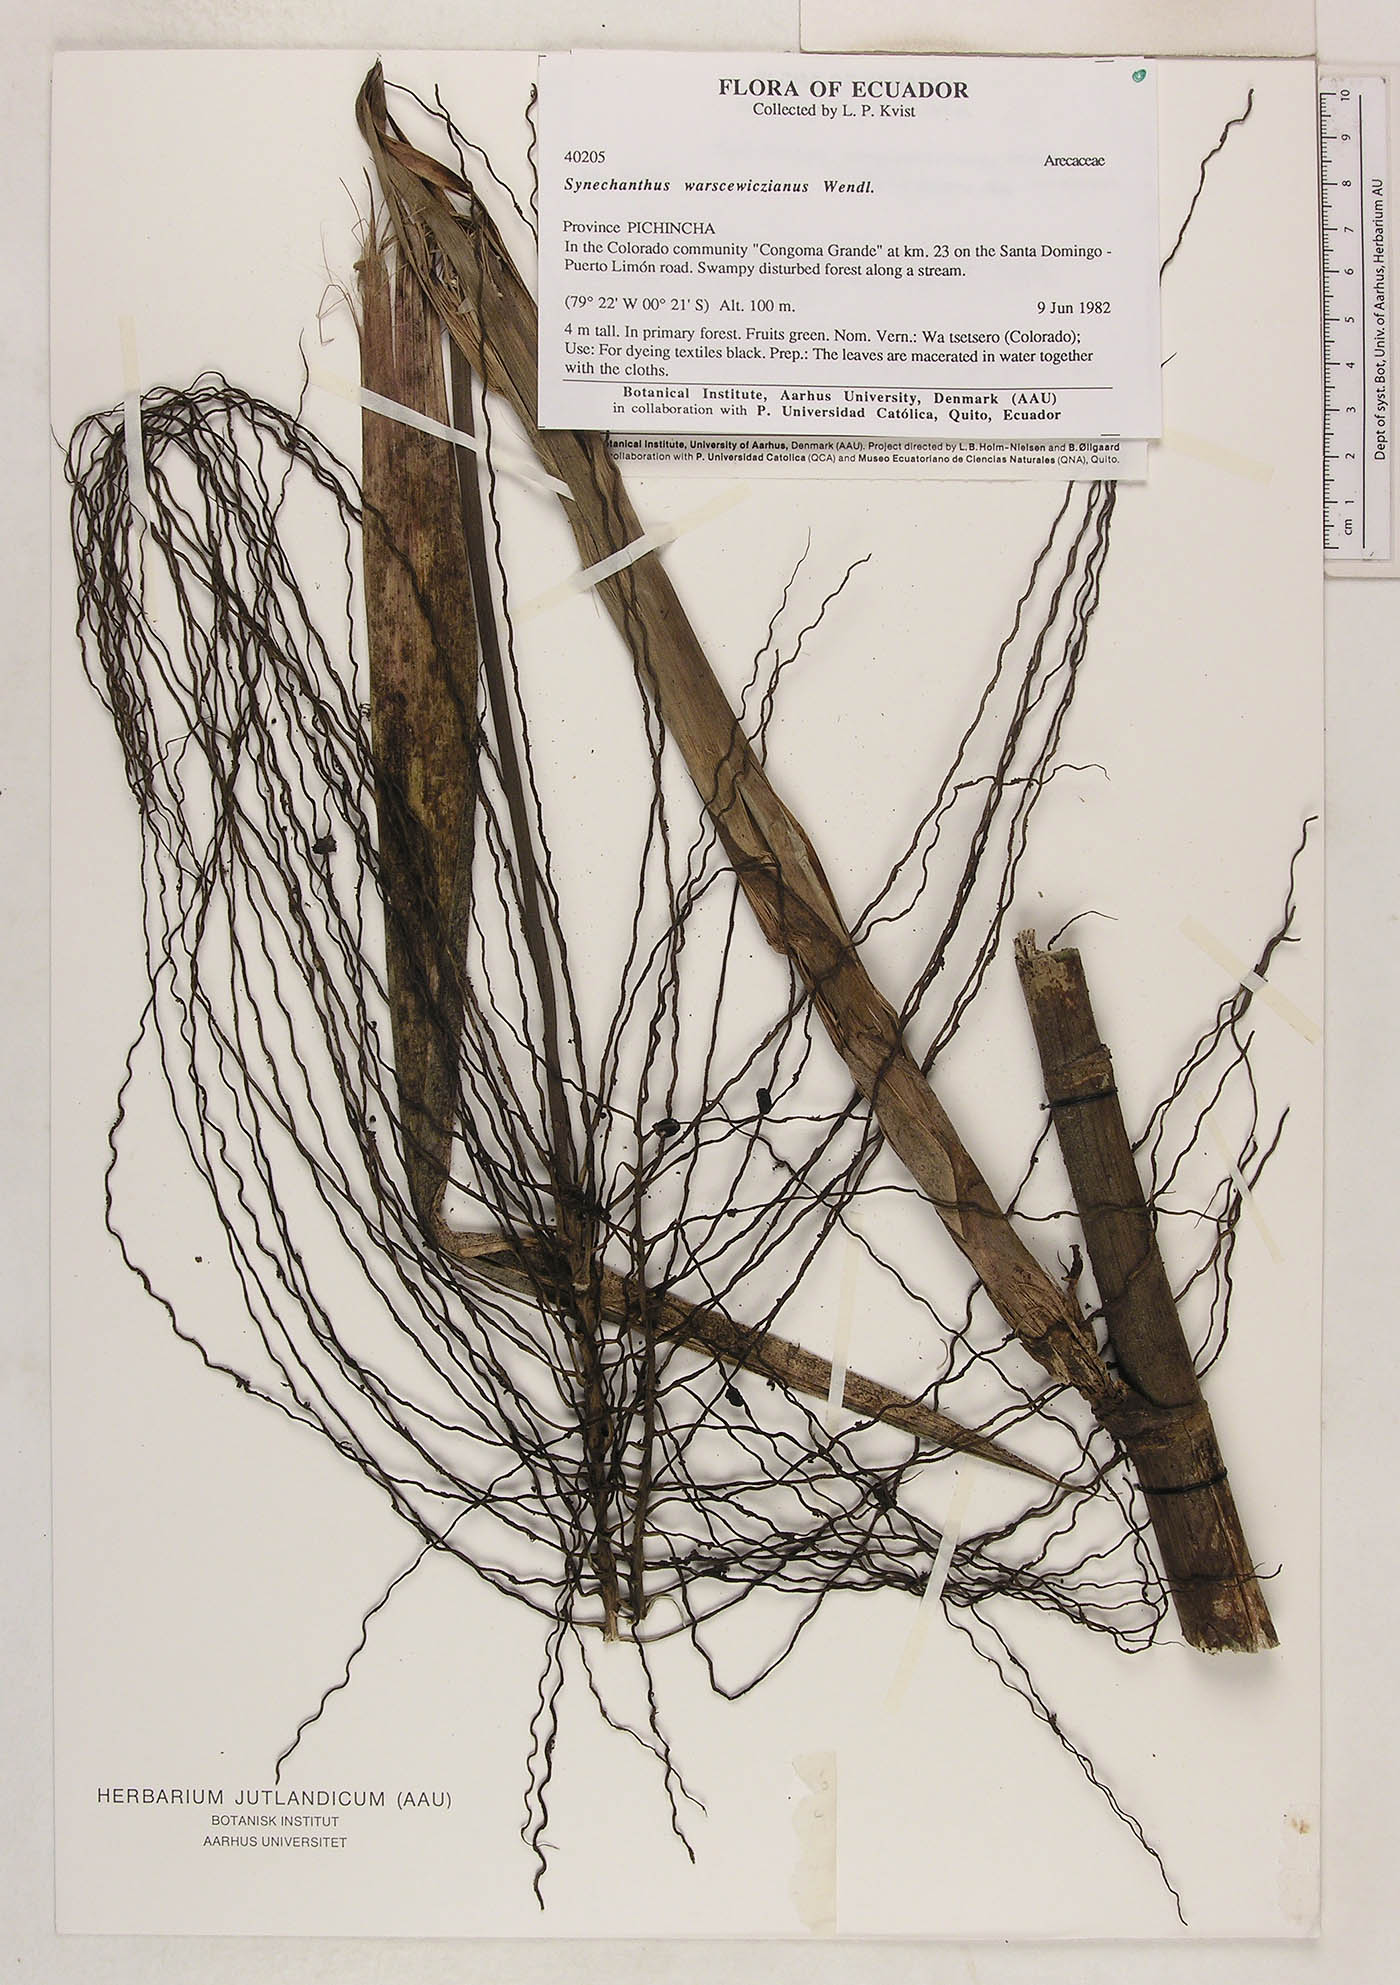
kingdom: Plantae
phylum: Tracheophyta
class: Liliopsida
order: Arecales
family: Arecaceae
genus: Synechanthus
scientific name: Synechanthus warscewiczianus
